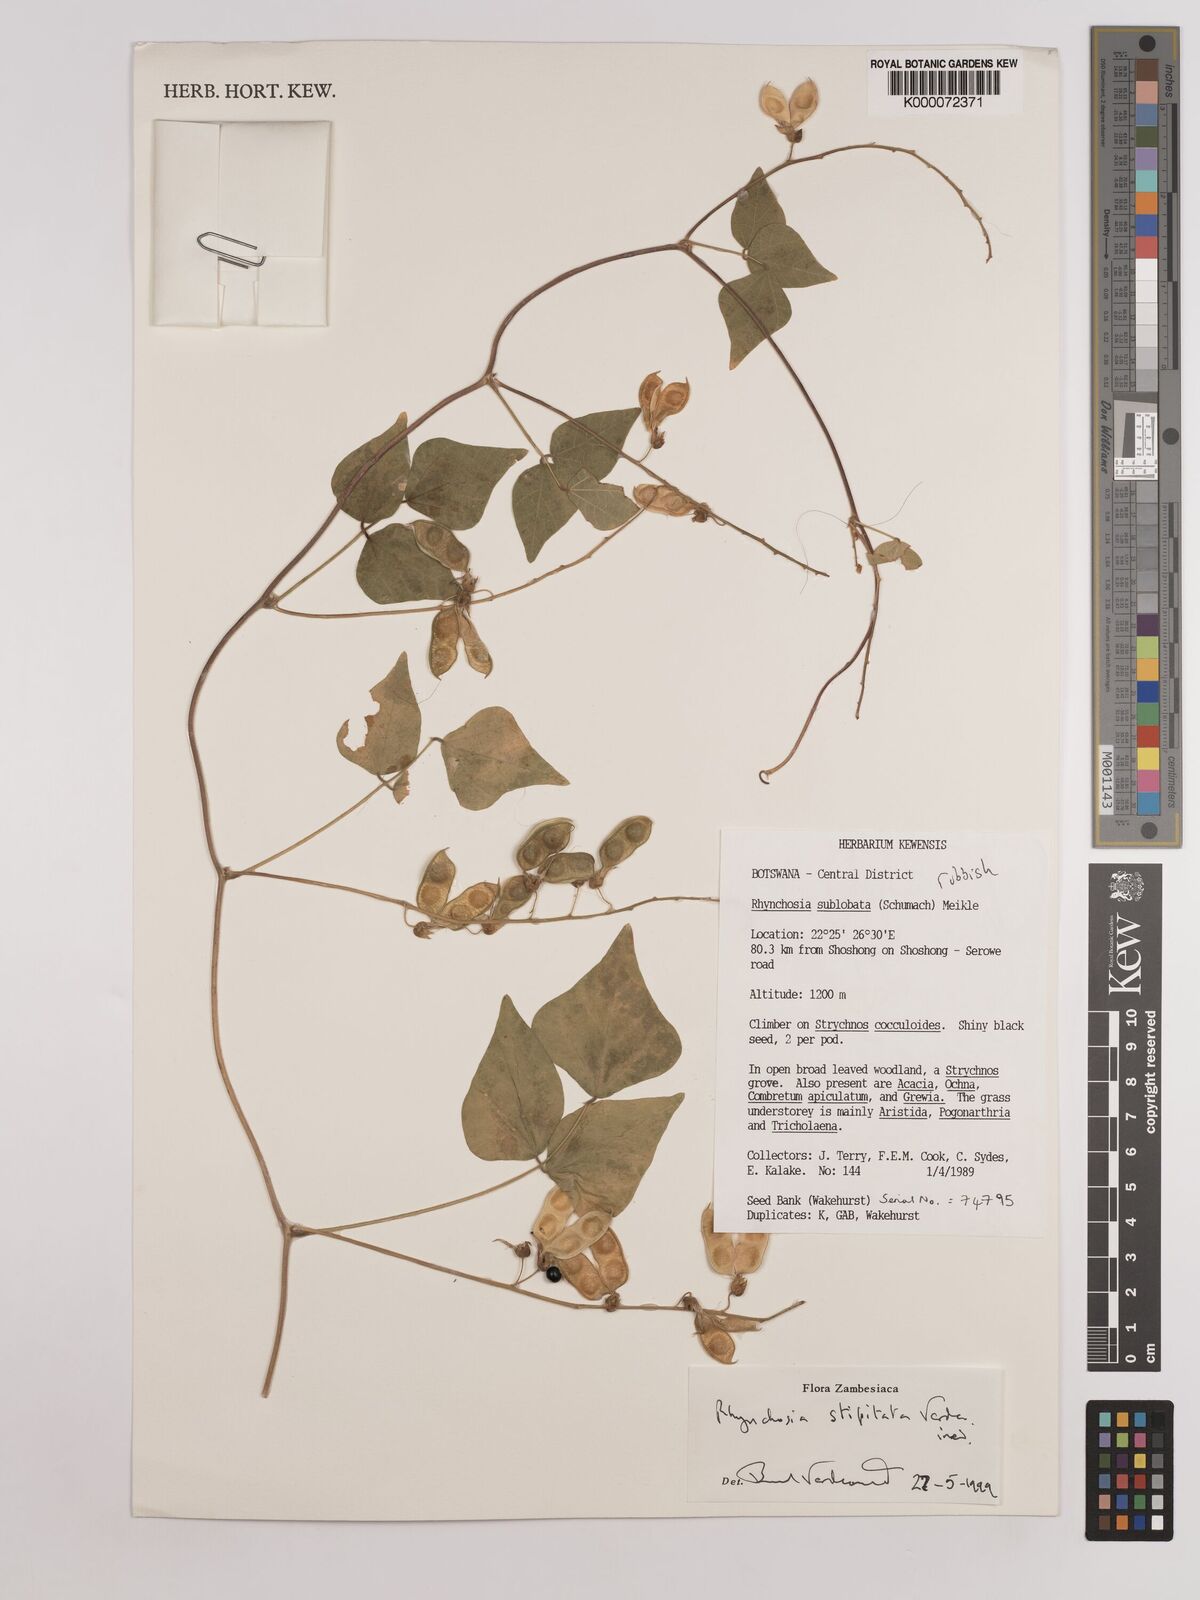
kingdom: Plantae
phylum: Tracheophyta
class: Magnoliopsida
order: Fabales
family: Fabaceae
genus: Rhynchosia
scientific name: Rhynchosia stipitata
